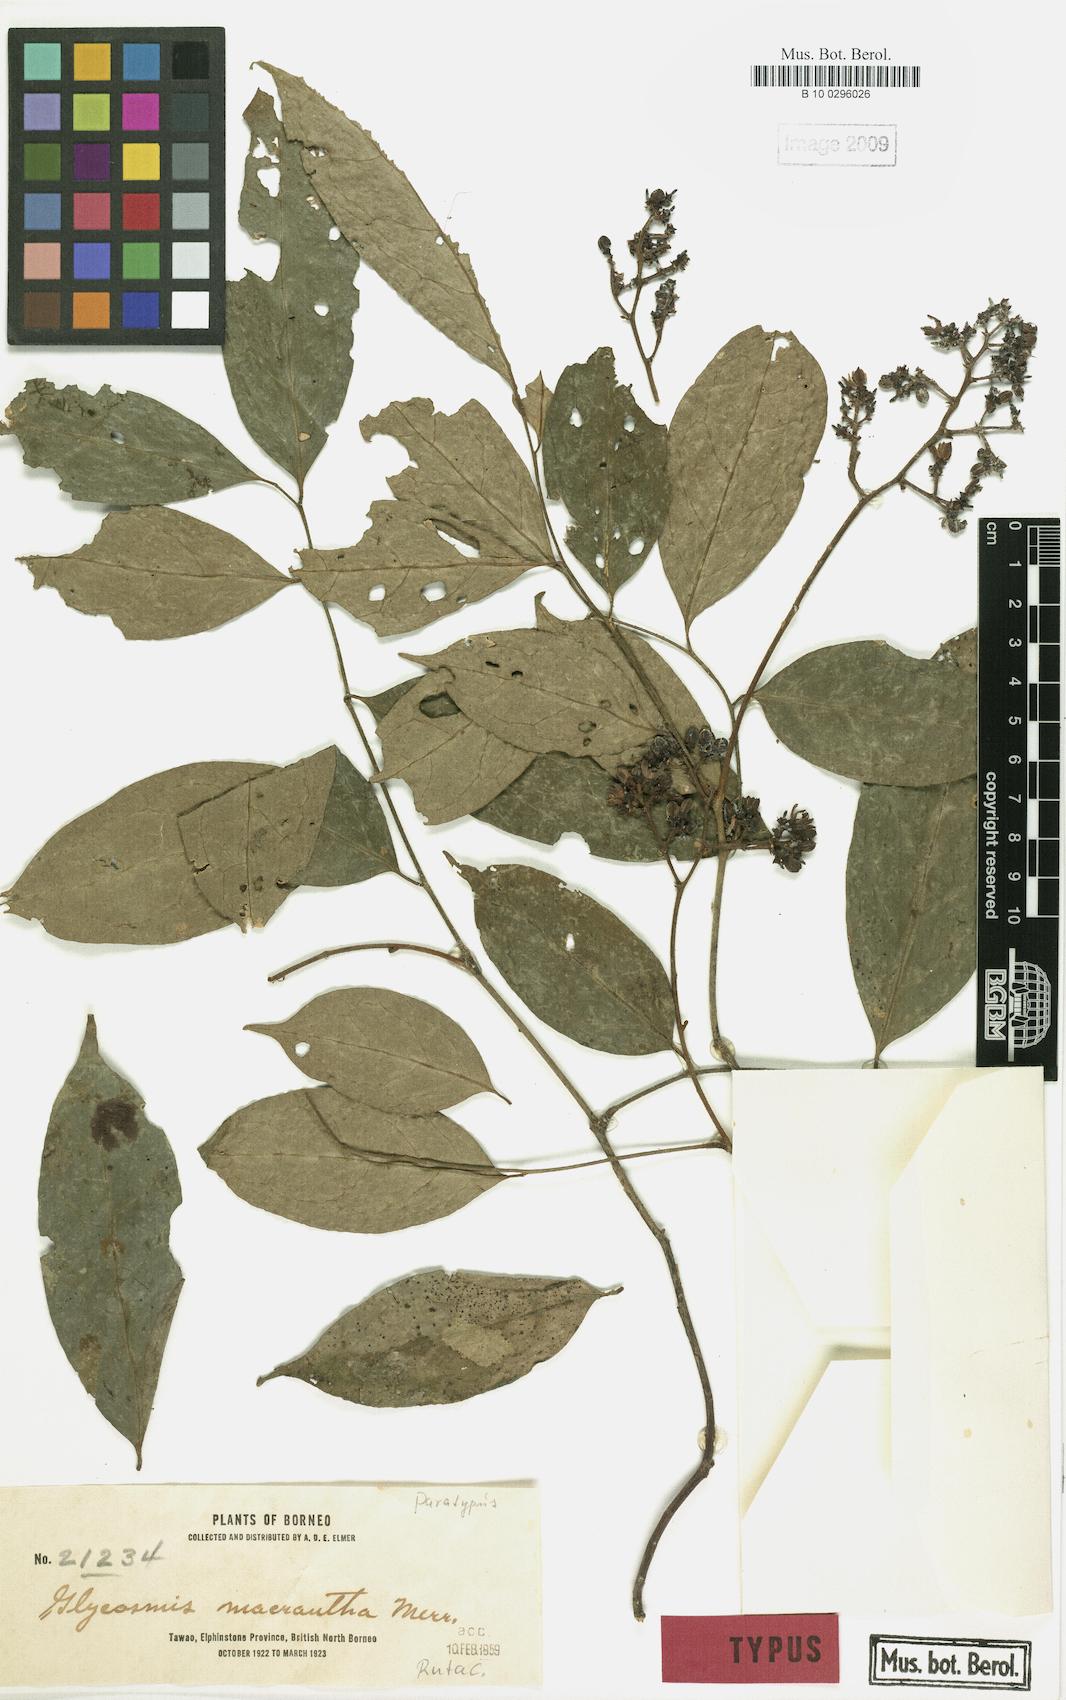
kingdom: Plantae
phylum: Tracheophyta
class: Magnoliopsida
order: Sapindales
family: Rutaceae
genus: Glycosmis
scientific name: Glycosmis macrantha
